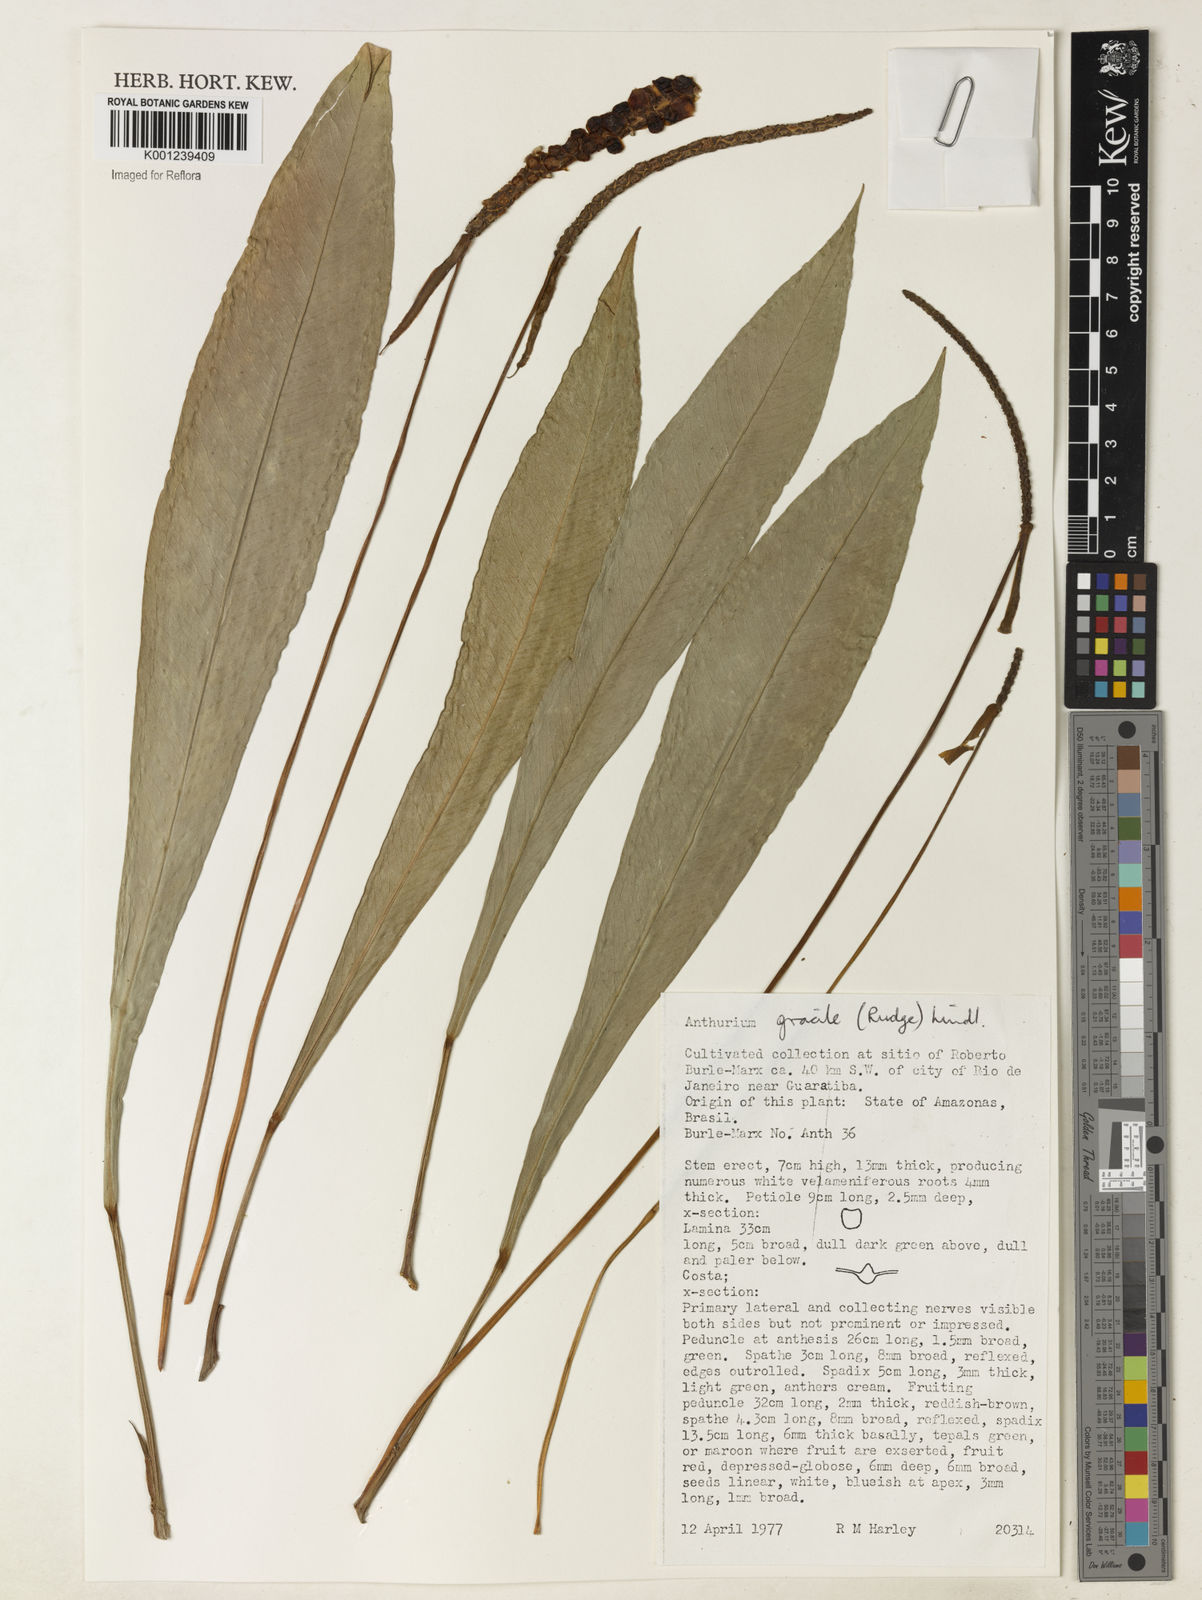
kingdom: Plantae
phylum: Tracheophyta
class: Liliopsida
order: Alismatales
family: Araceae
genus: Anthurium
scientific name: Anthurium gracile
